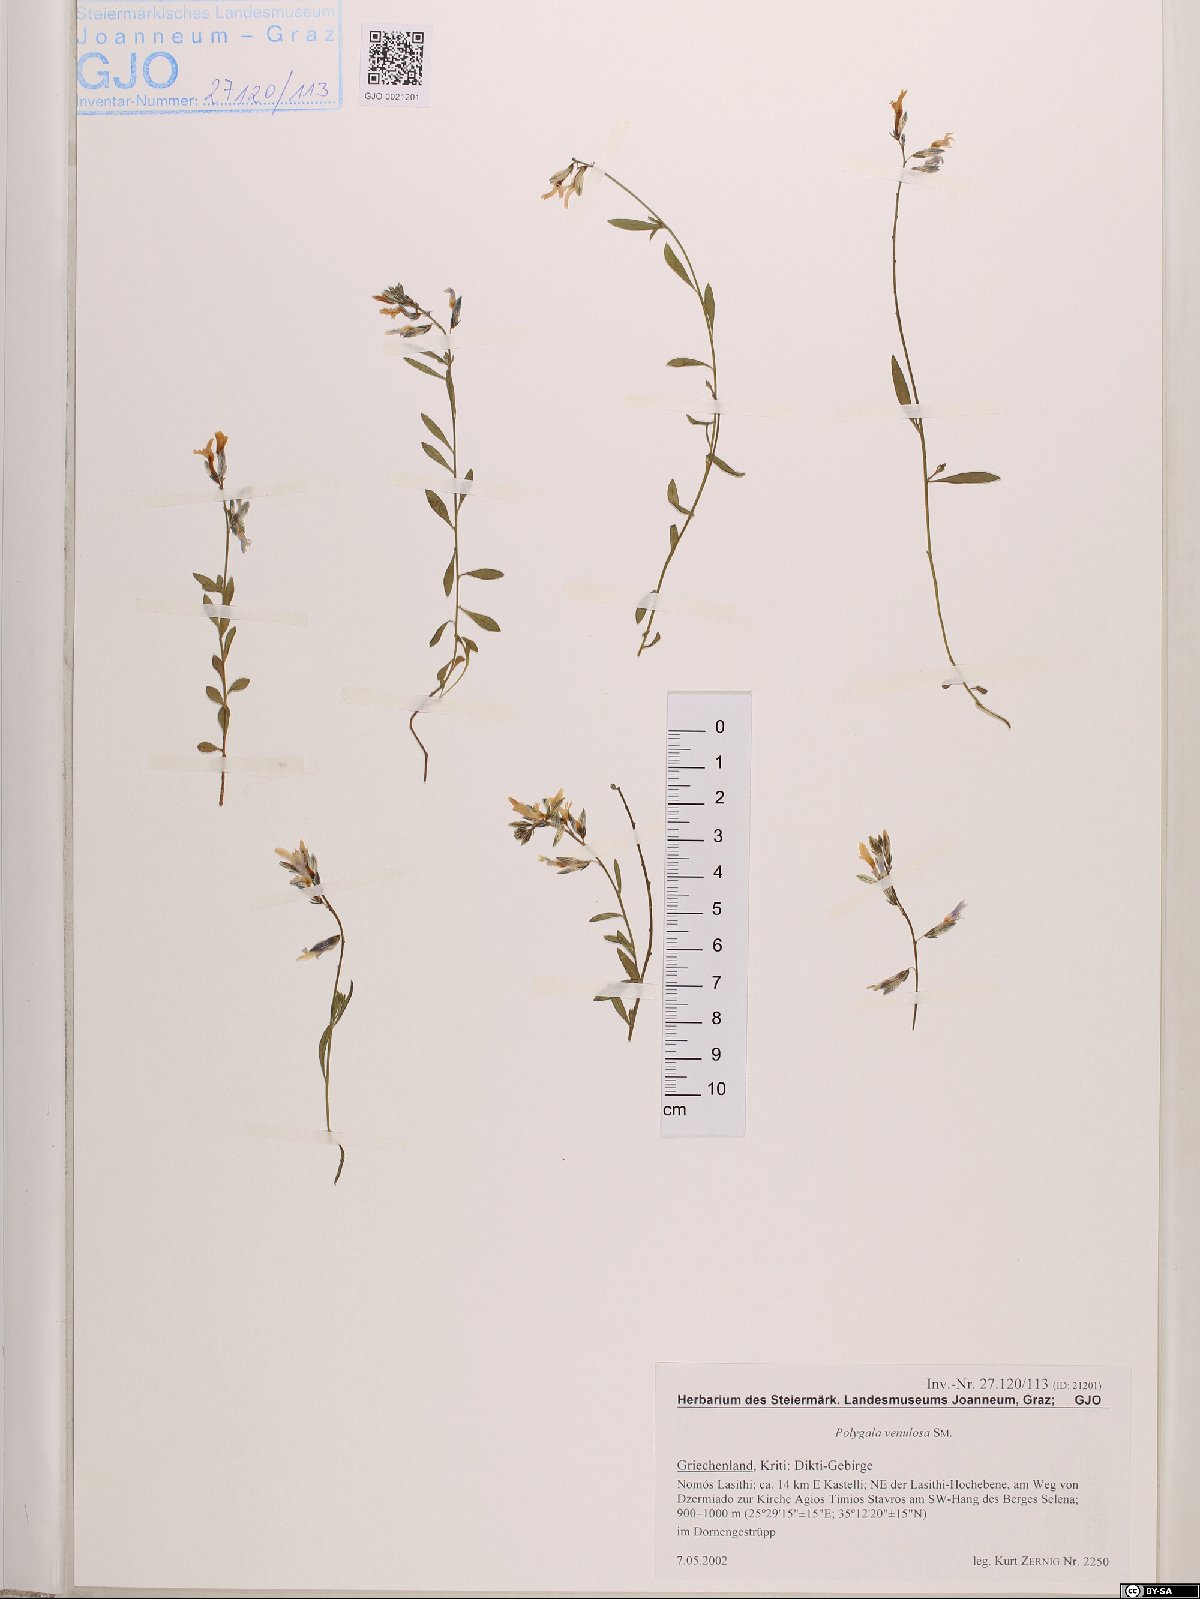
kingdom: Plantae
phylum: Tracheophyta
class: Magnoliopsida
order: Fabales
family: Polygalaceae
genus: Polygala
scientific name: Polygala venulosa
